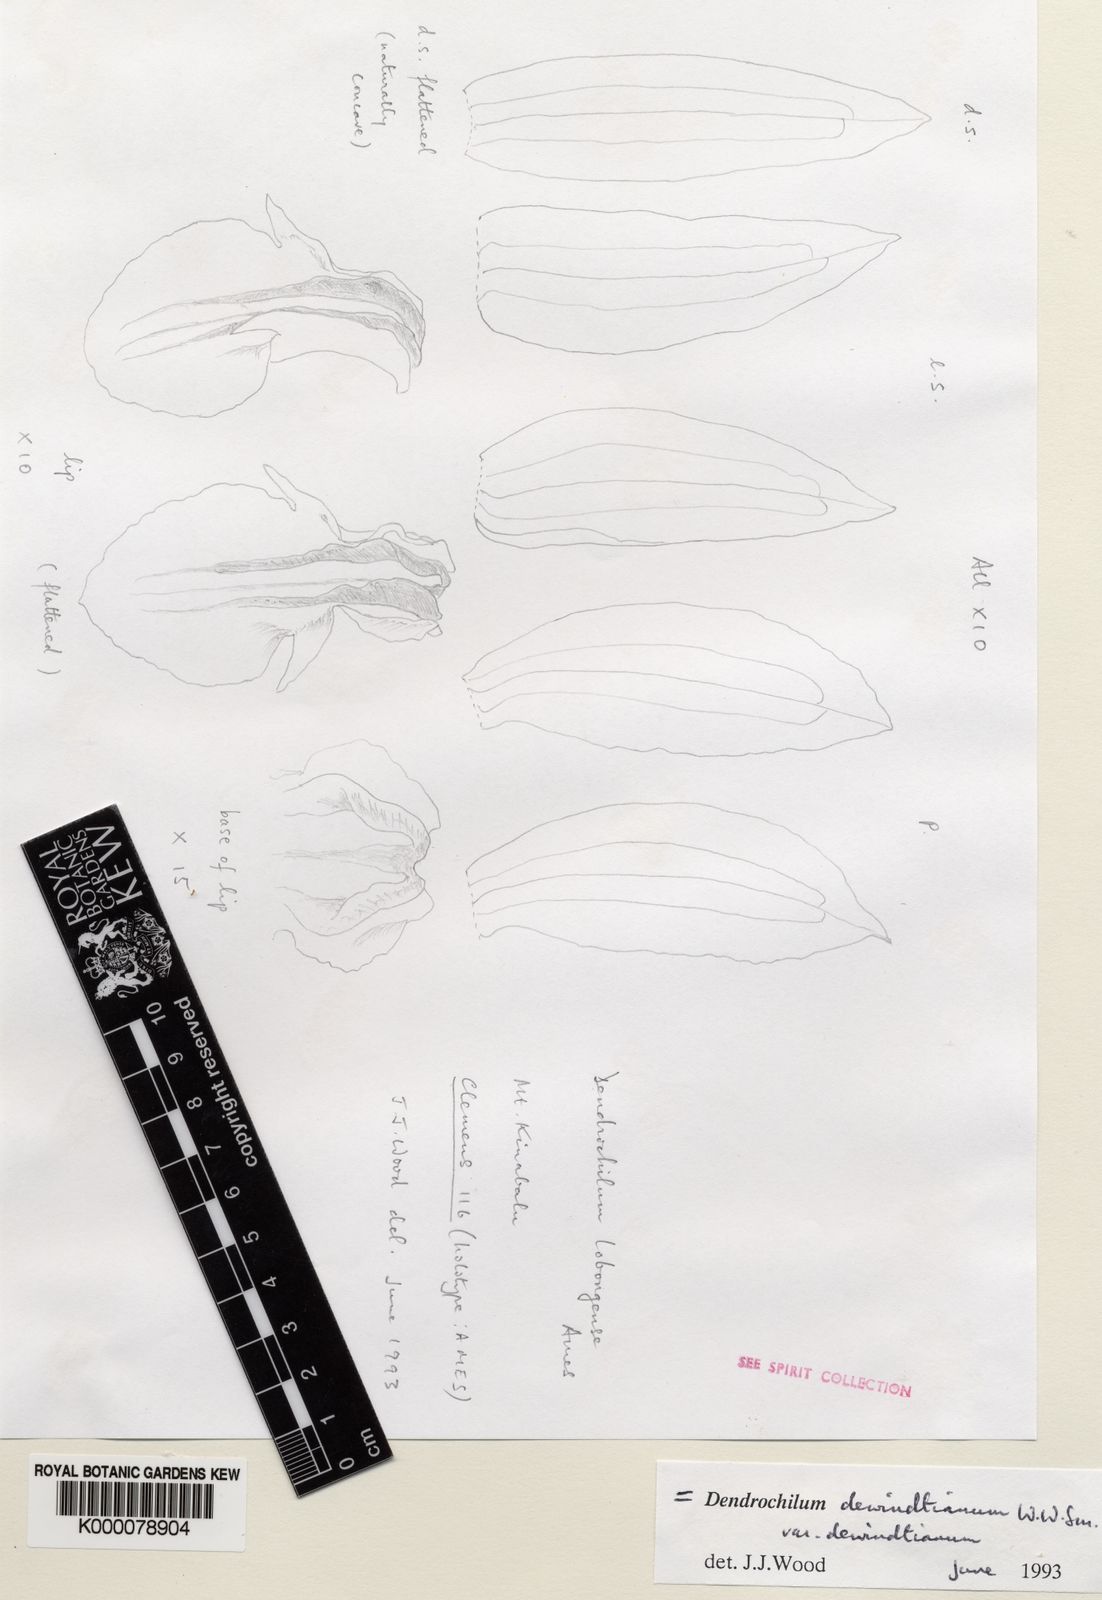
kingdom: Plantae
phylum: Tracheophyta
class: Liliopsida
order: Asparagales
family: Orchidaceae
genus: Coelogyne
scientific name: Coelogyne dewindtiana
